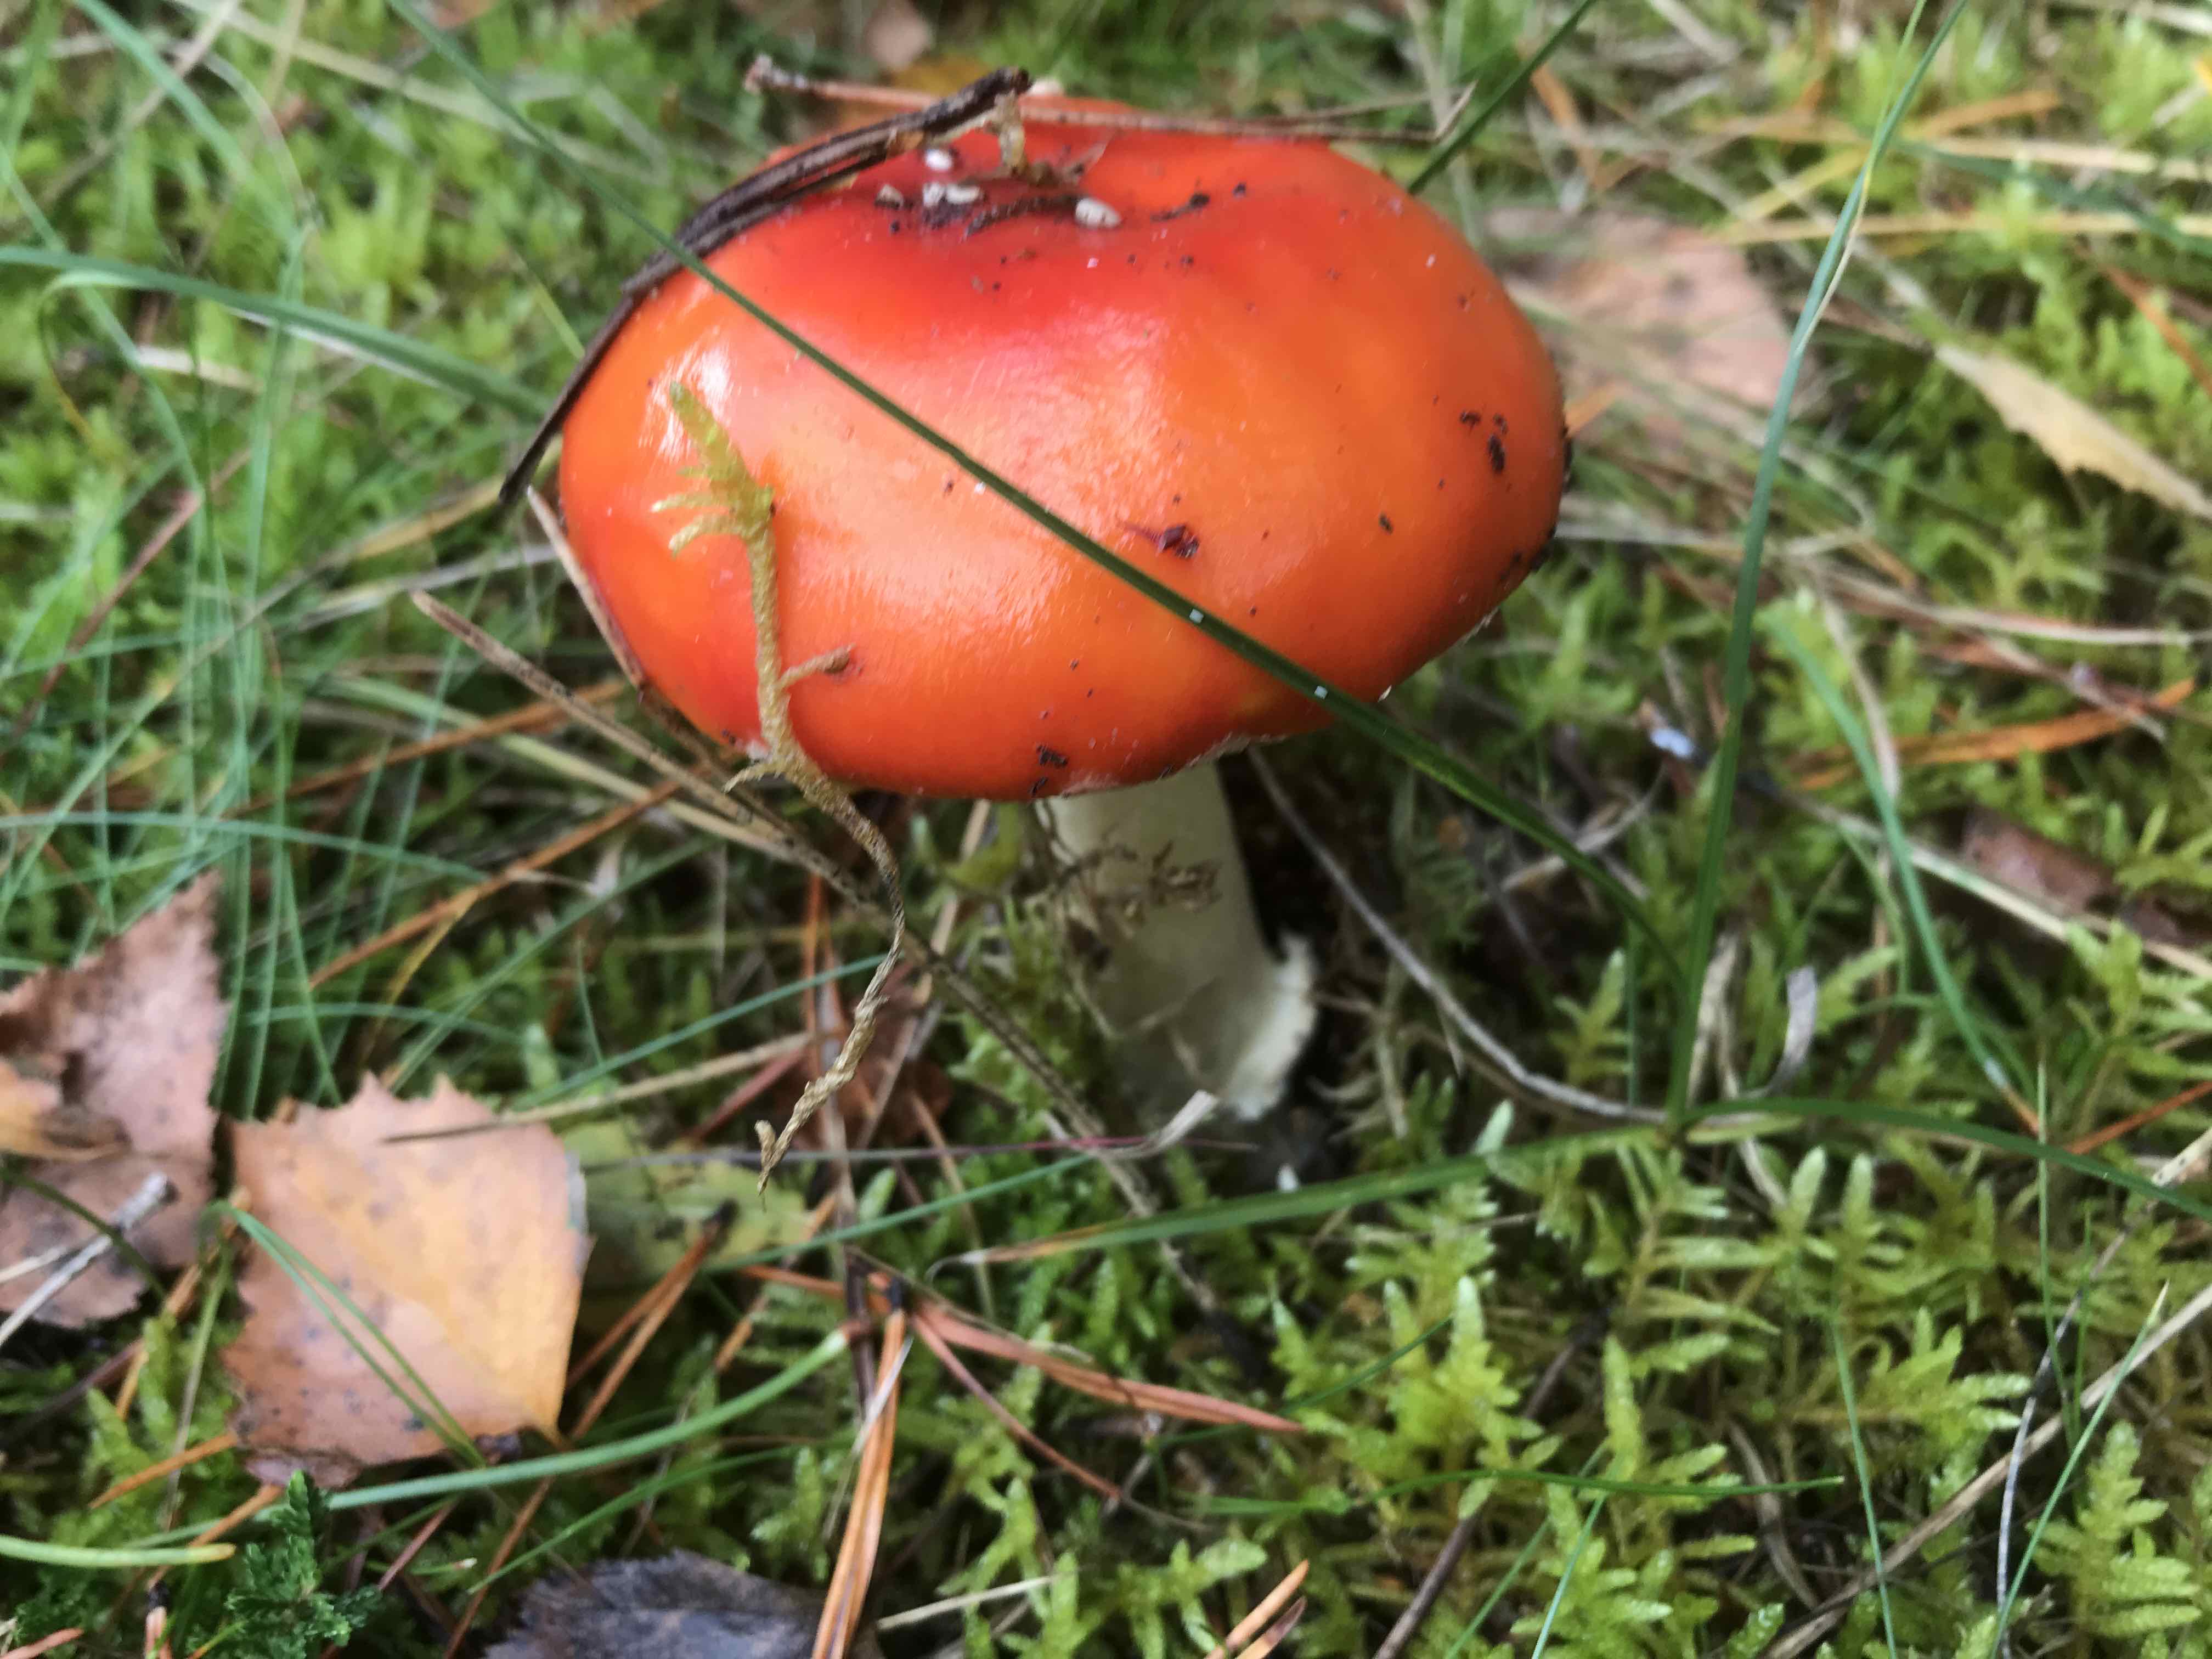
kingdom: Fungi
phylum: Basidiomycota
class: Agaricomycetes
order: Agaricales
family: Amanitaceae
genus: Amanita
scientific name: Amanita muscaria
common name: rød fluesvamp
